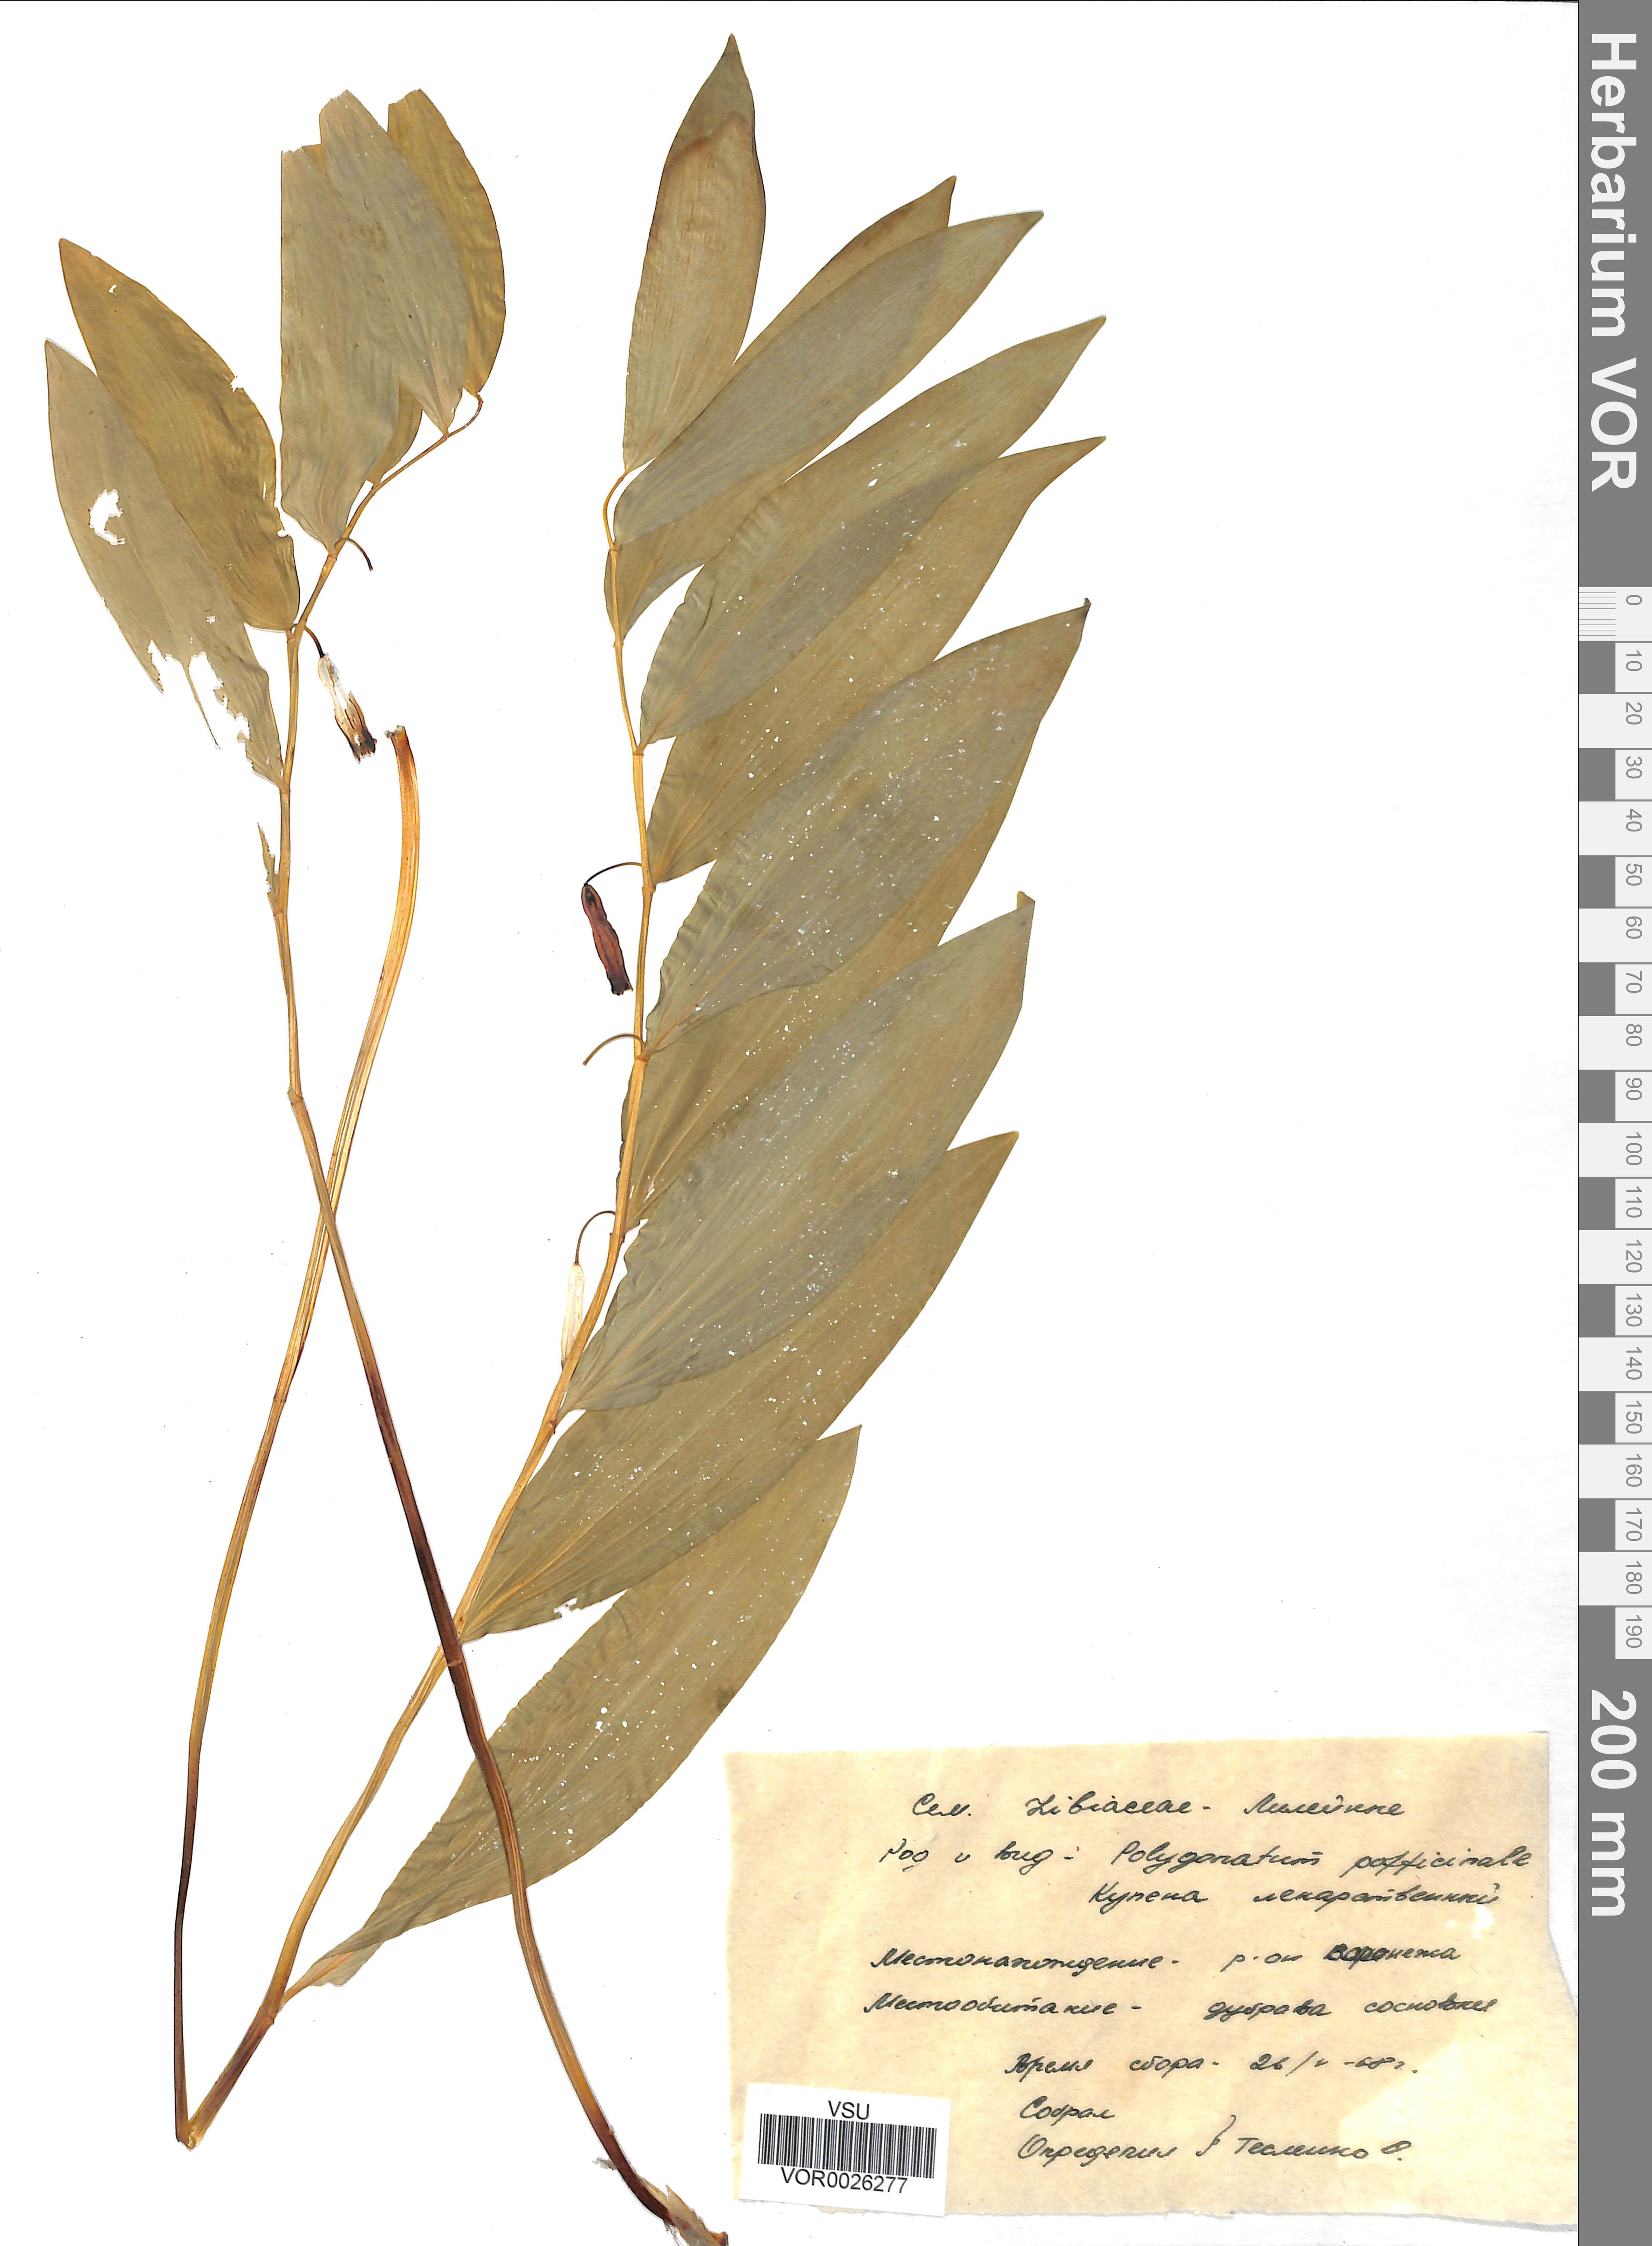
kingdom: Plantae
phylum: Tracheophyta
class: Liliopsida
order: Asparagales
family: Asparagaceae
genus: Polygonatum
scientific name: Polygonatum odoratum
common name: Angular solomon's-seal
